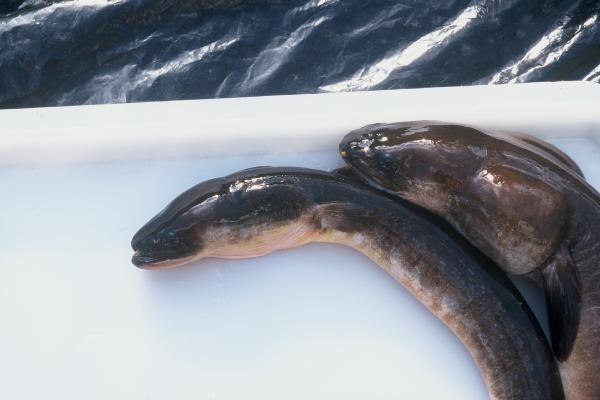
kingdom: Animalia
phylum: Chordata
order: Anguilliformes
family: Anguillidae
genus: Anguilla
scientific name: Anguilla bicolor
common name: Indonesian shortfin eel
